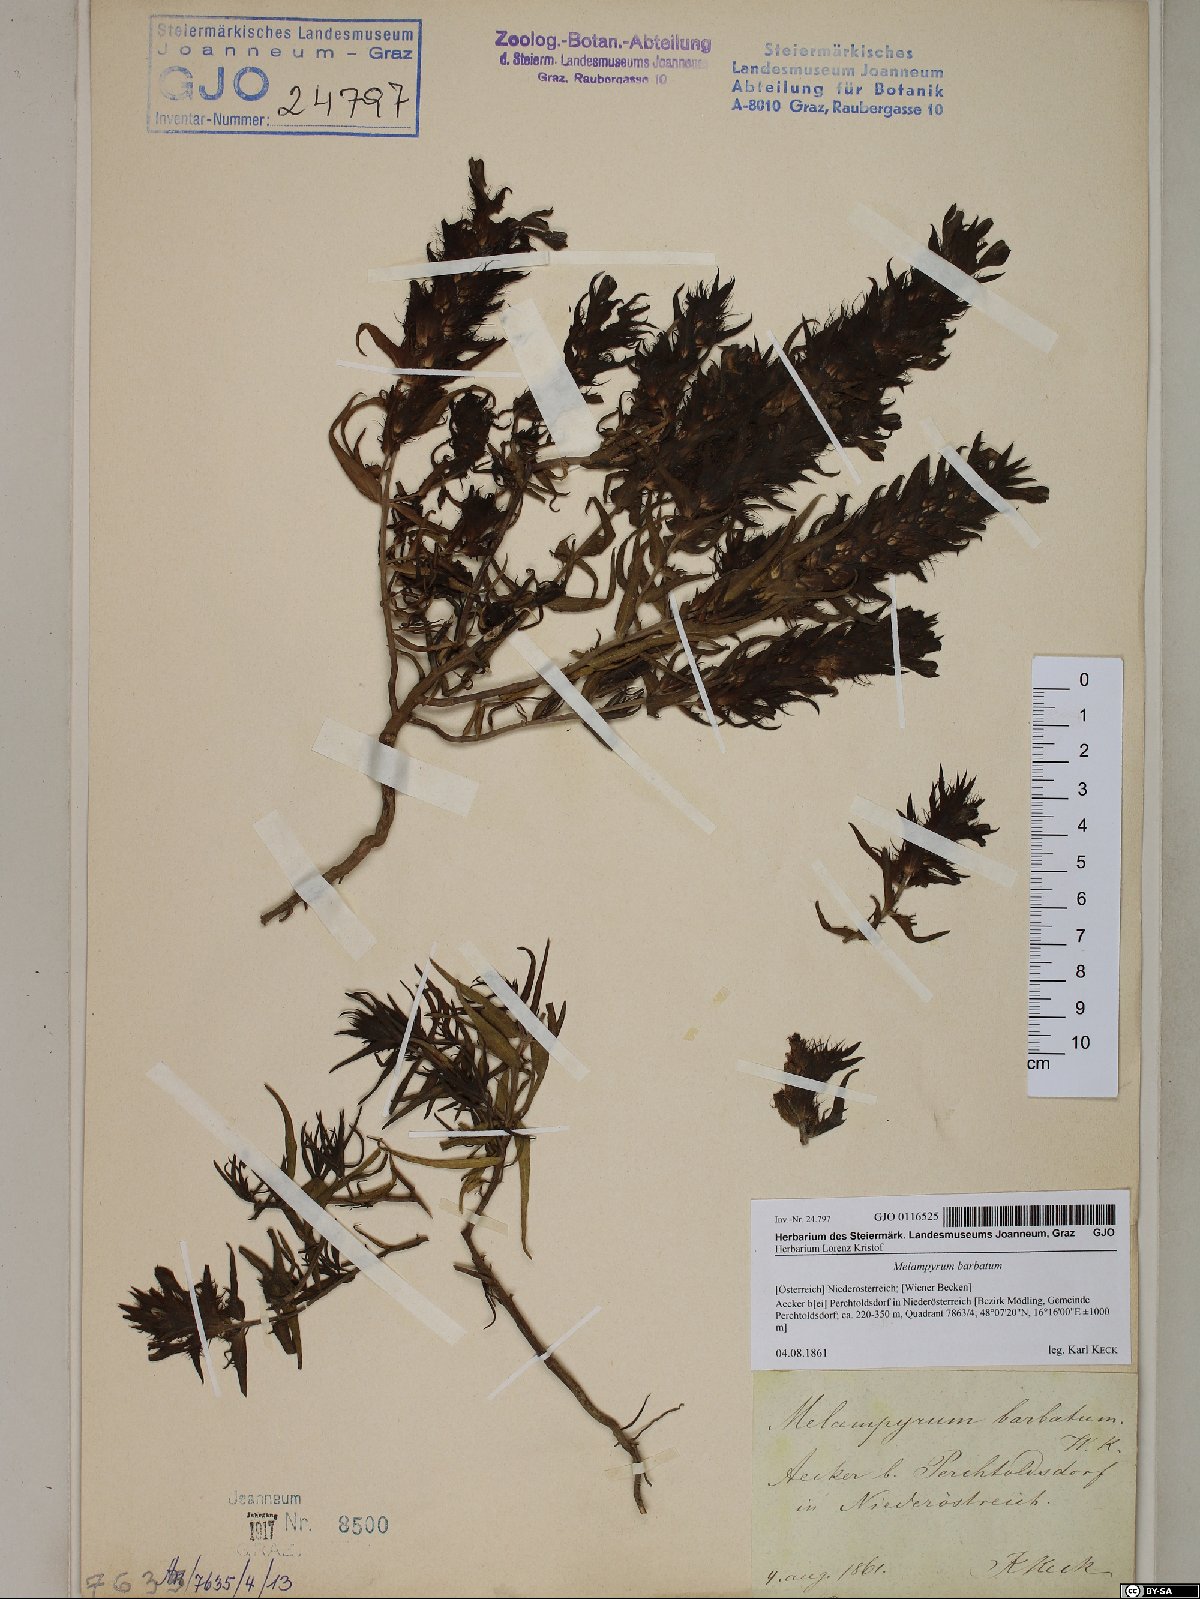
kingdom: Plantae
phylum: Tracheophyta
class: Magnoliopsida
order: Lamiales
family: Orobanchaceae
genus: Melampyrum
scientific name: Melampyrum barbatum
